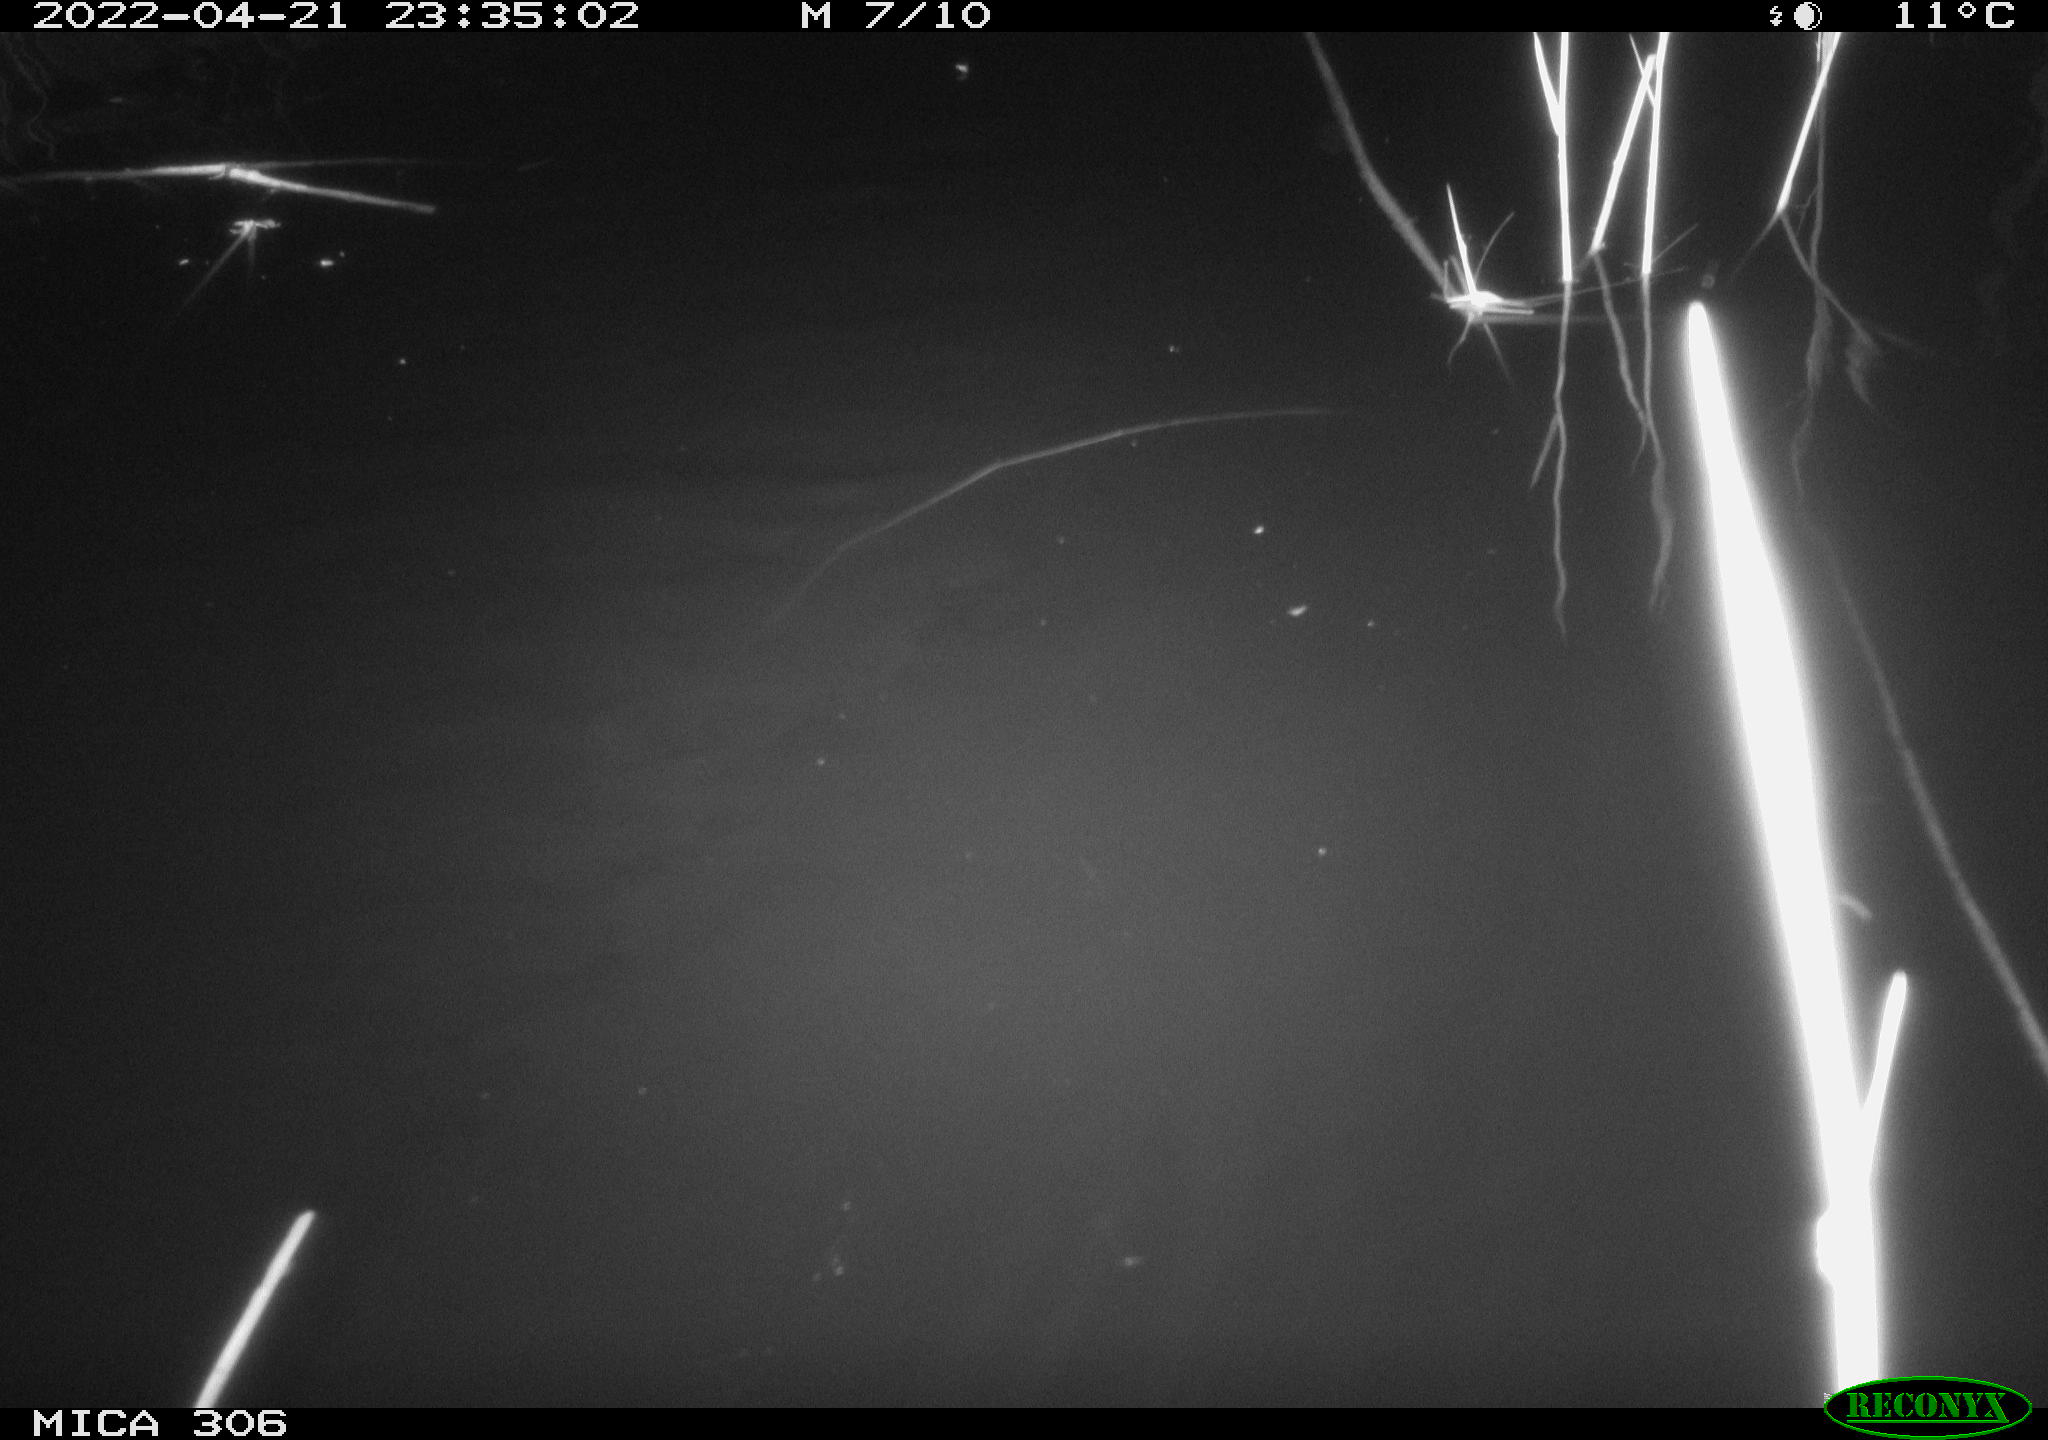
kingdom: Animalia
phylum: Chordata
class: Mammalia
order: Rodentia
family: Cricetidae
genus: Ondatra
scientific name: Ondatra zibethicus
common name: Muskrat
